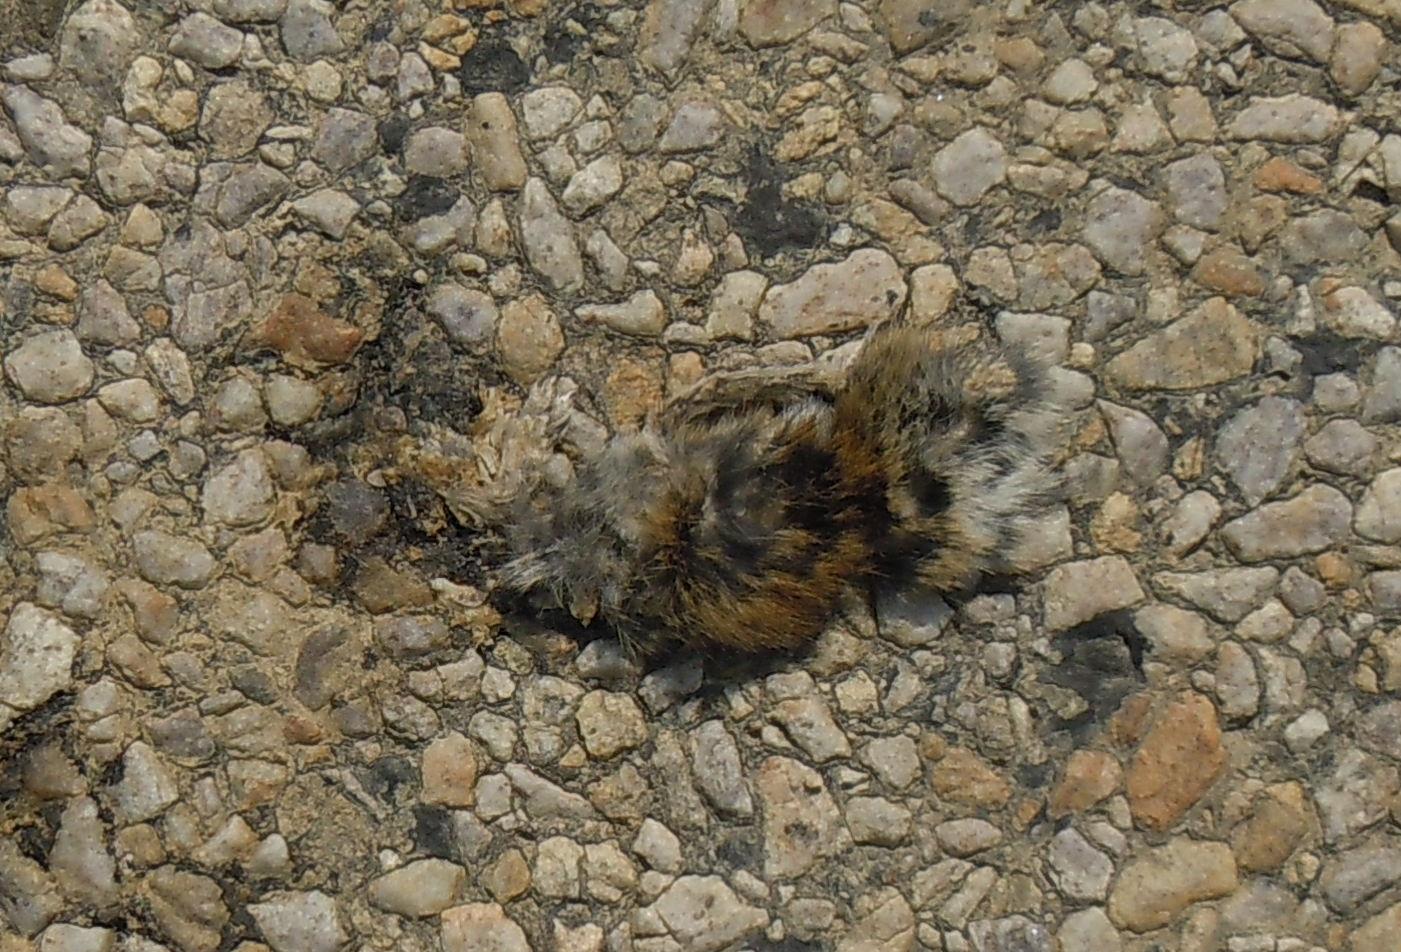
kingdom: Animalia
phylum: Chordata
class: Mammalia
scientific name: Mammalia
